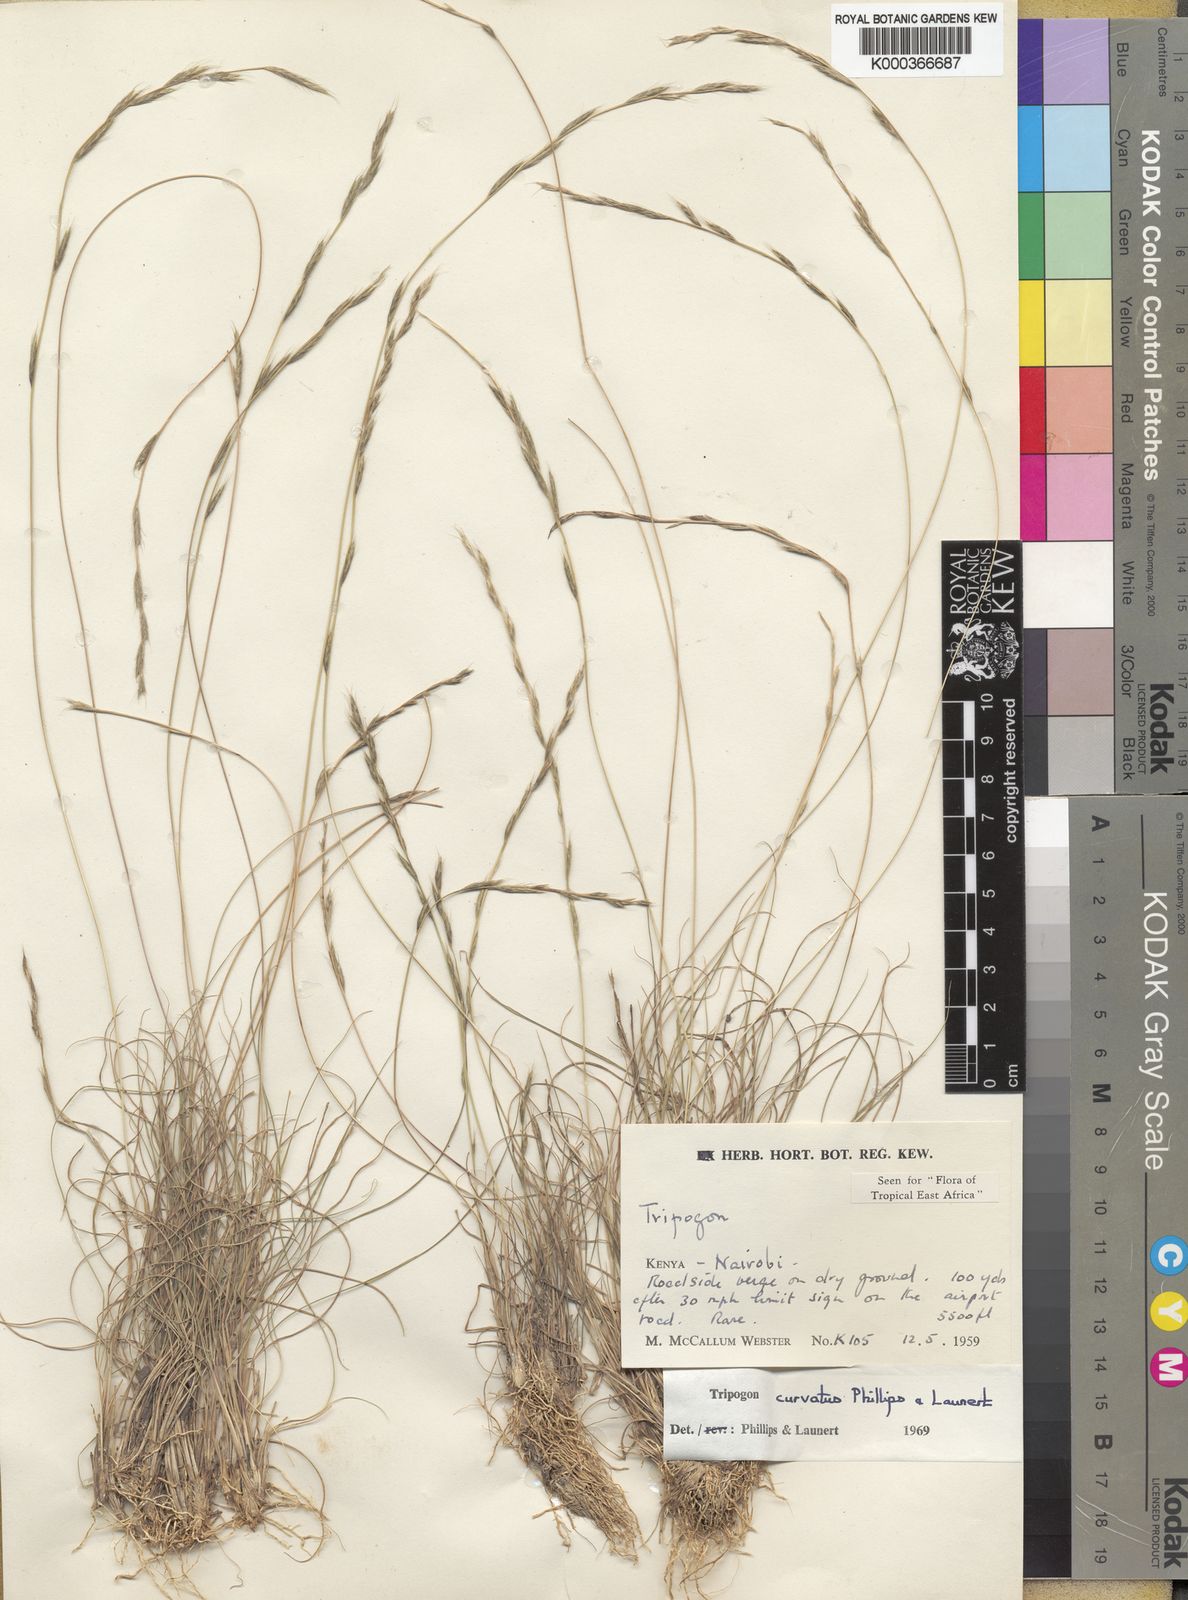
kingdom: Plantae
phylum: Tracheophyta
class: Liliopsida
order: Poales
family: Poaceae
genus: Tripogon
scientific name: Tripogon curvatus
